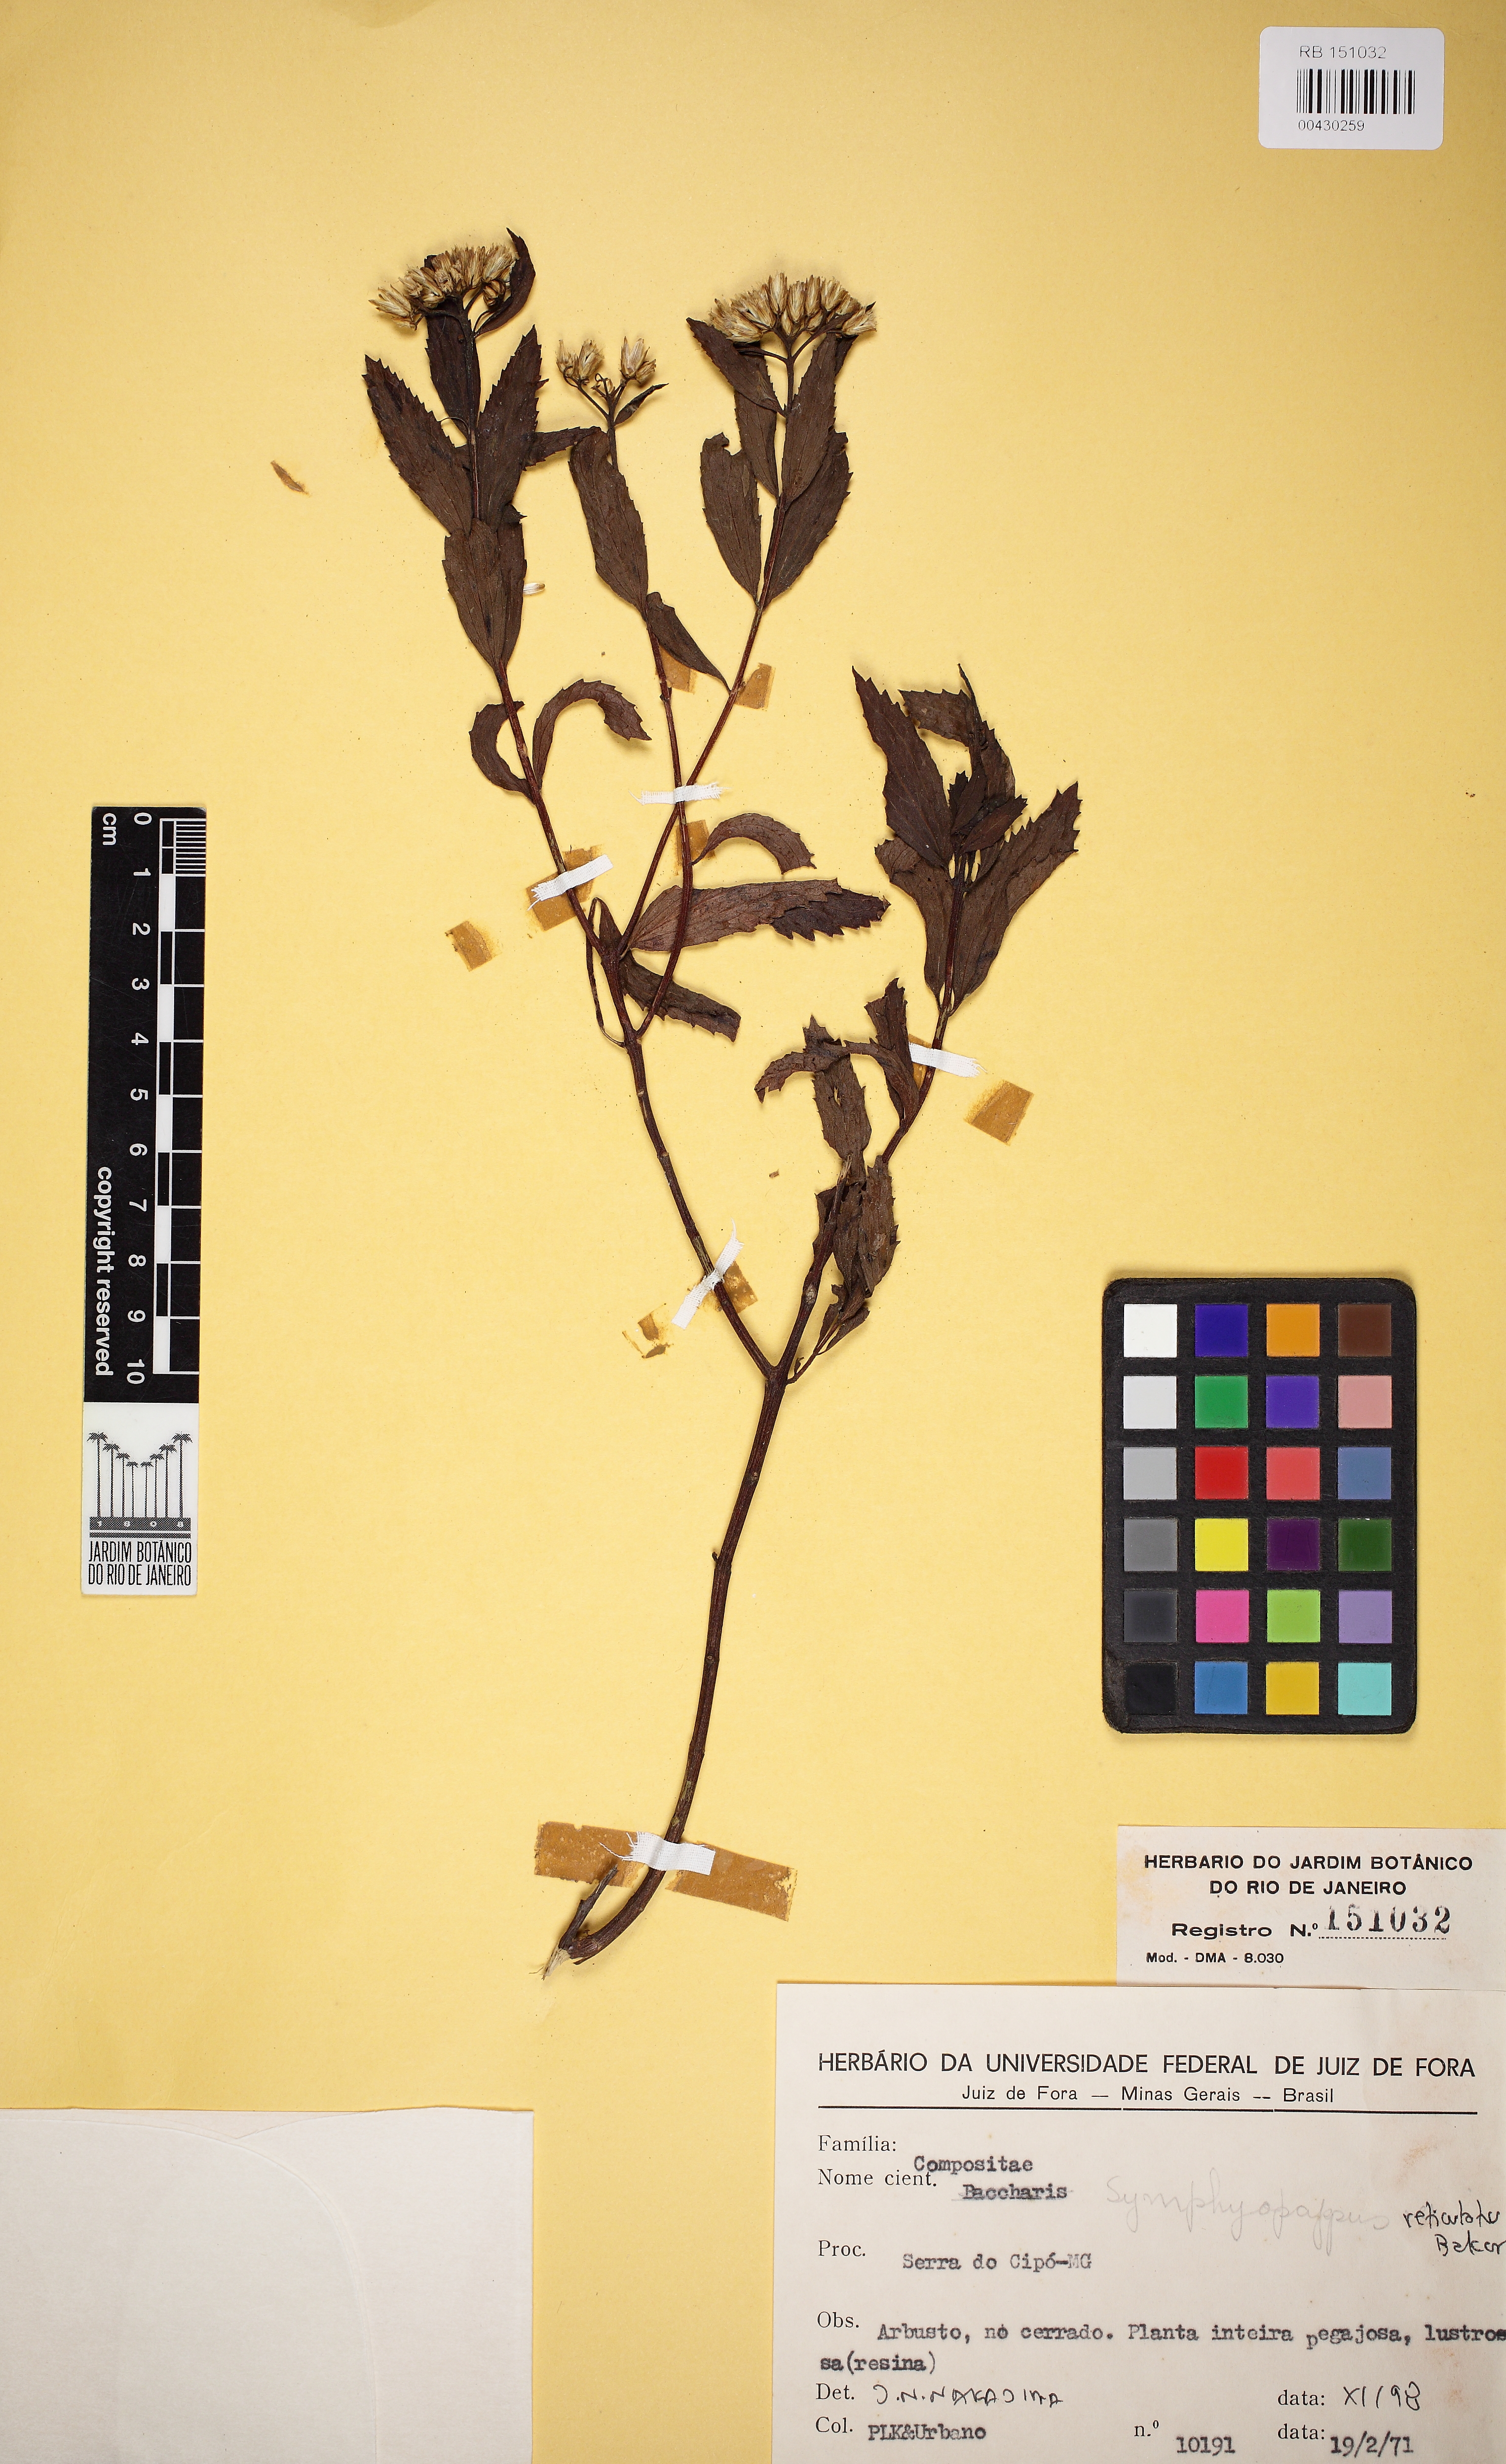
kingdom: Plantae
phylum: Tracheophyta
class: Magnoliopsida
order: Asterales
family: Asteraceae
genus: Symphyopappus
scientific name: Symphyopappus reticulatus
